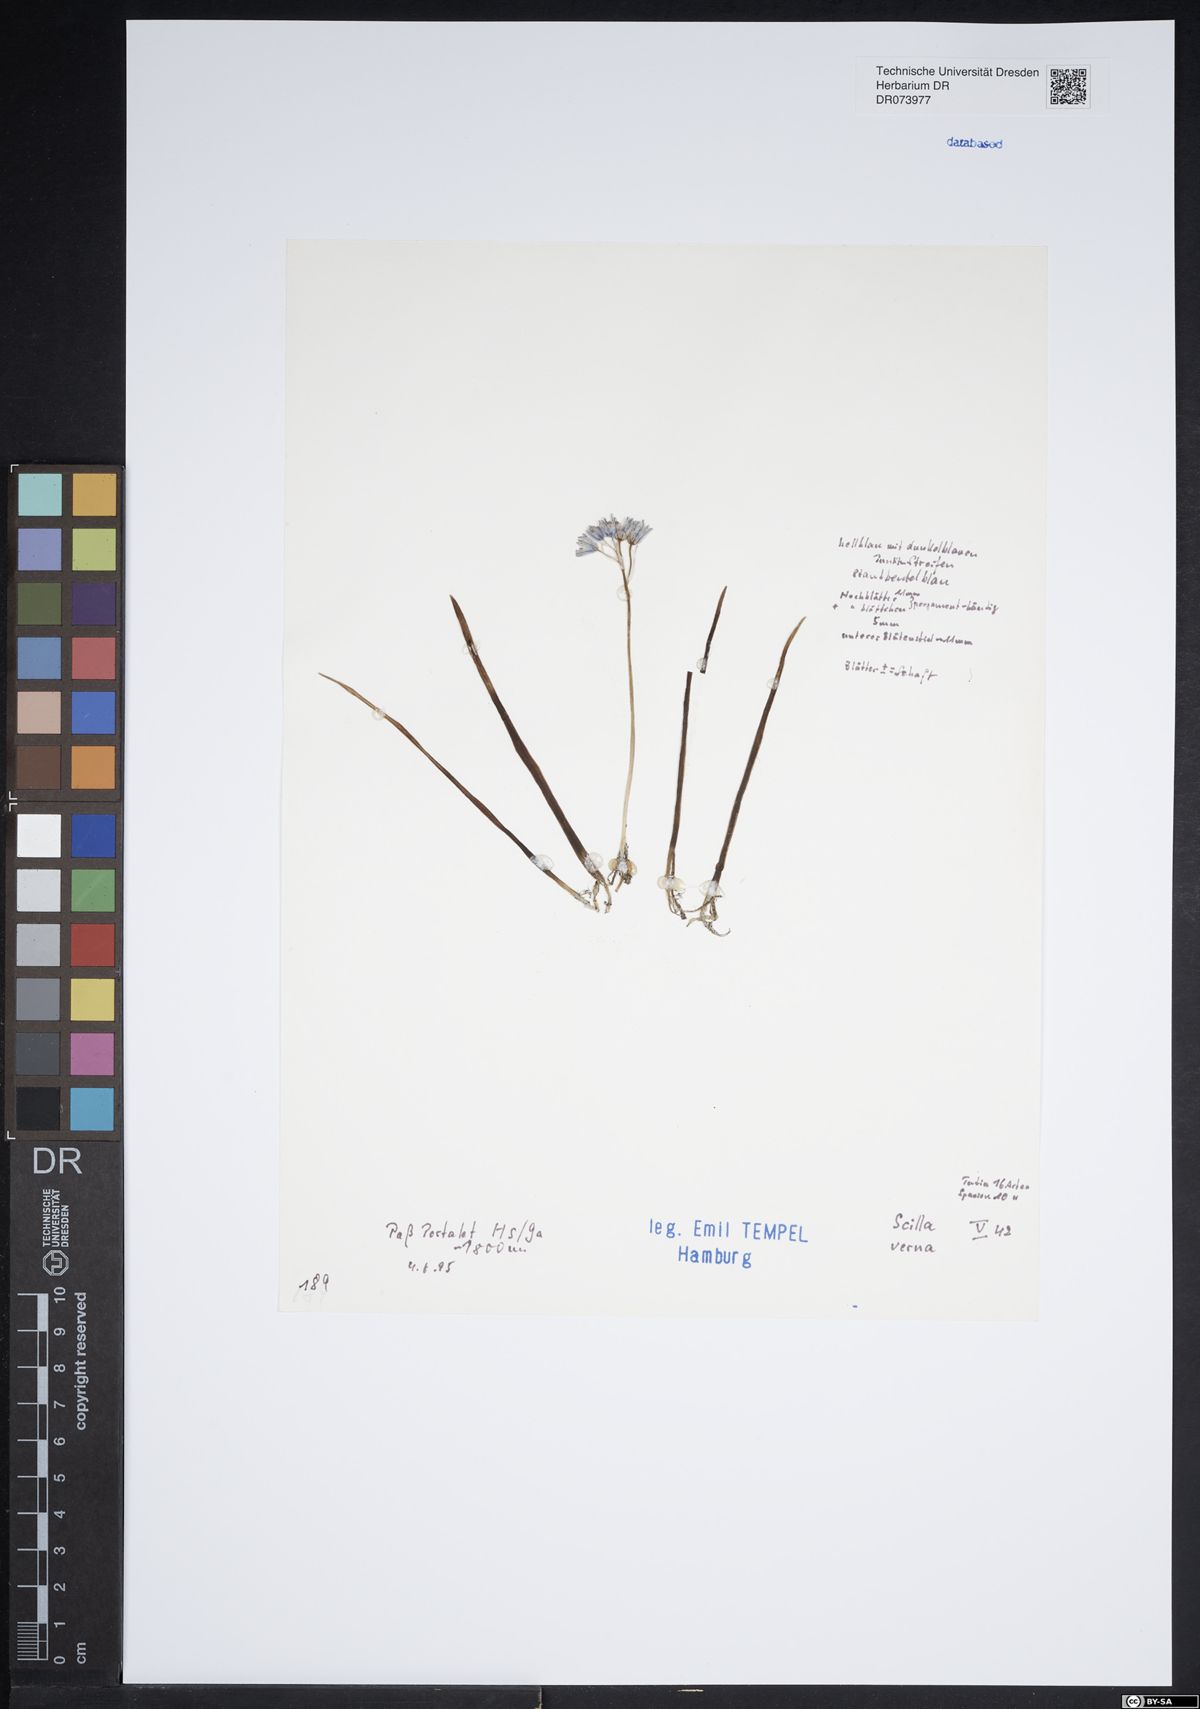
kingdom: Plantae
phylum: Tracheophyta
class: Liliopsida
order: Asparagales
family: Asparagaceae
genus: Scilla
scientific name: Scilla verna
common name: Spring squill
